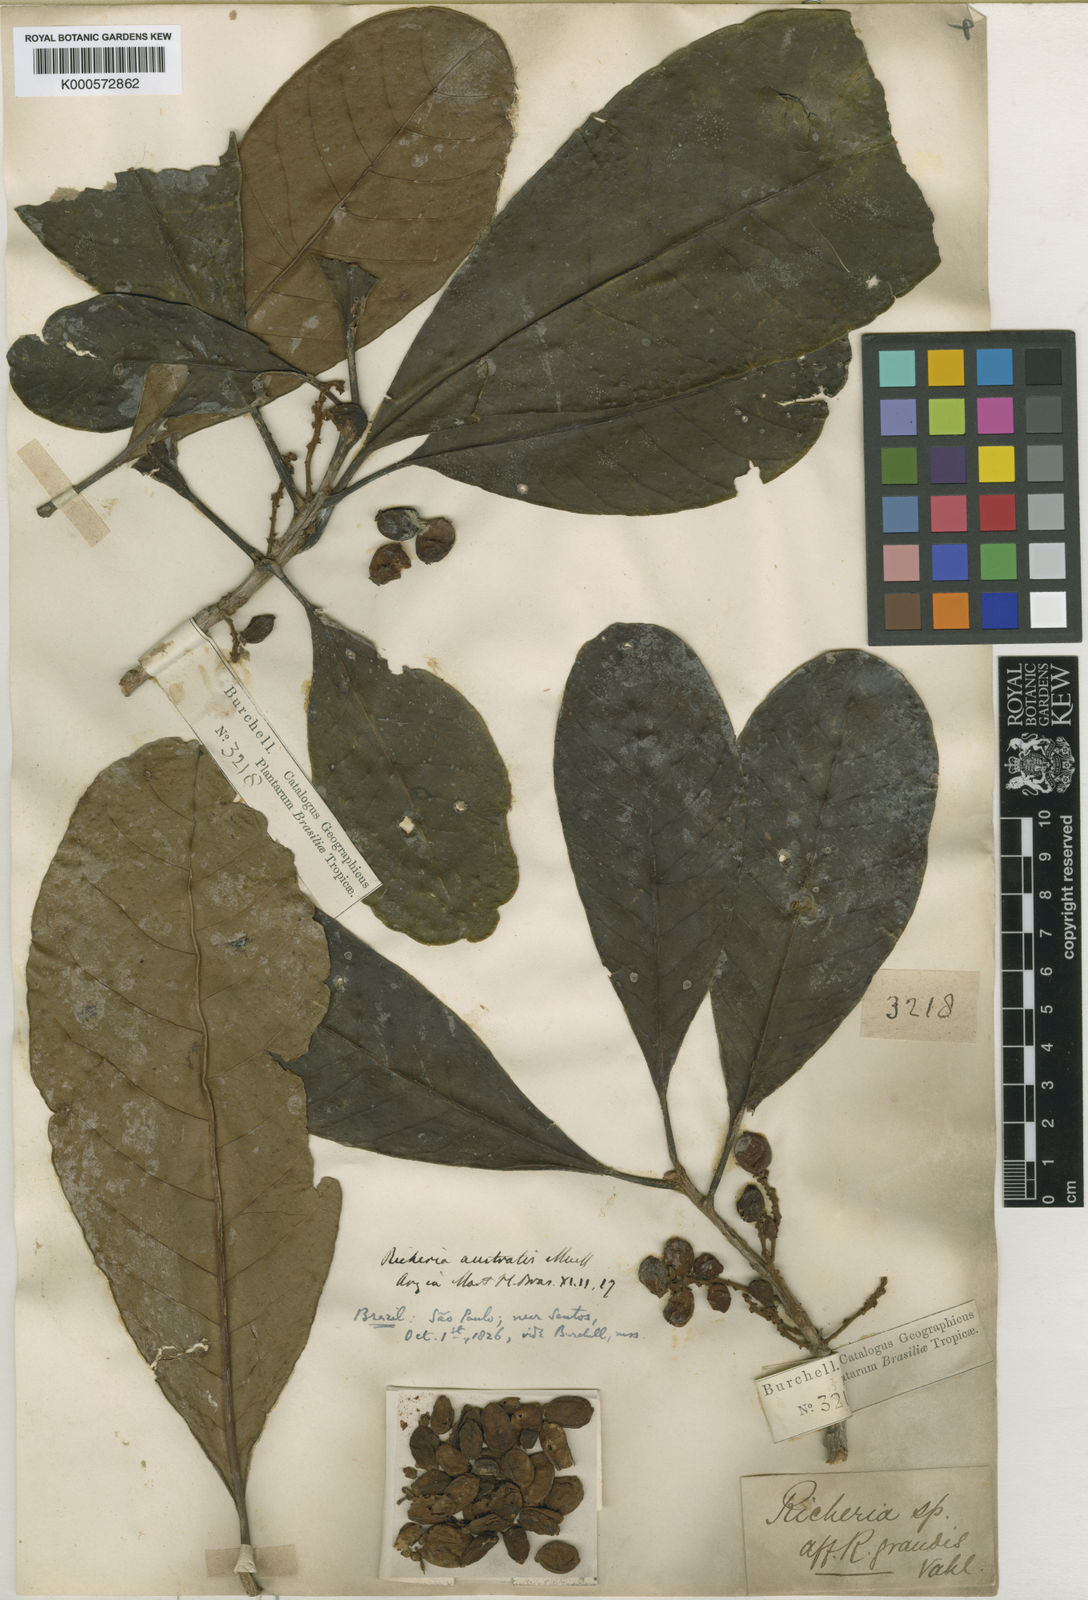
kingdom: Plantae
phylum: Tracheophyta
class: Magnoliopsida
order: Malpighiales
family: Phyllanthaceae
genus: Richeria
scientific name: Richeria
